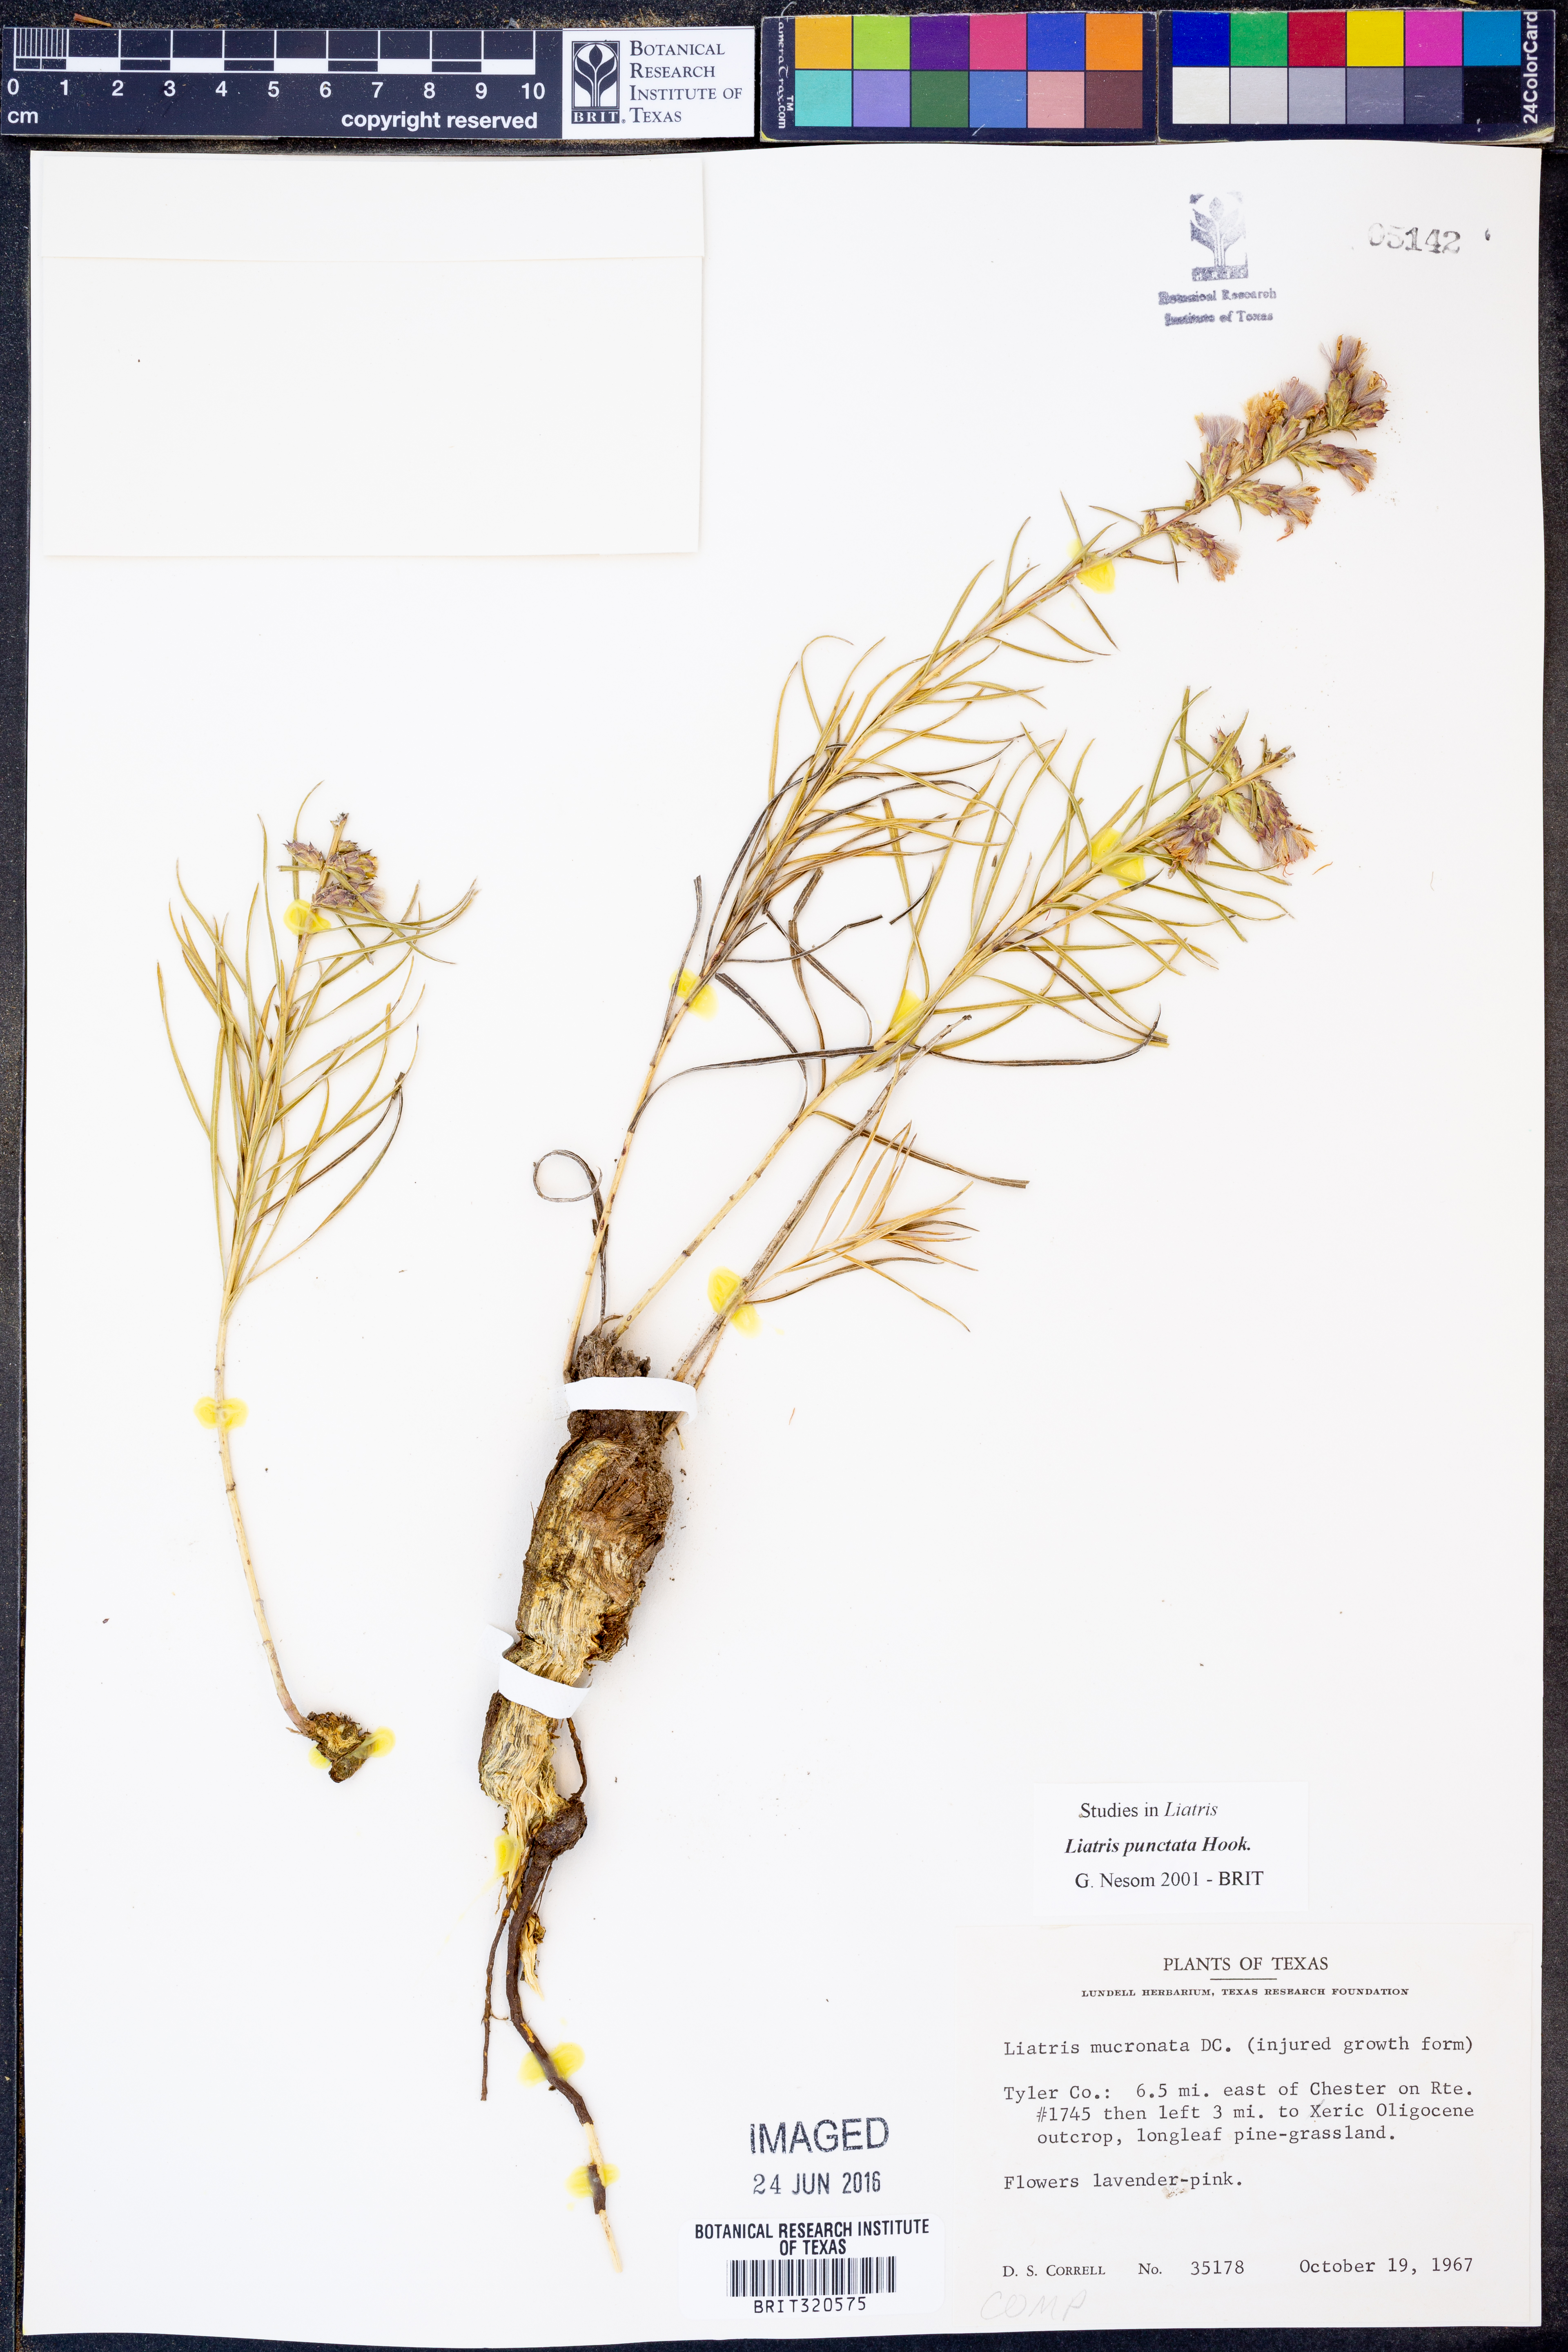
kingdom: Plantae
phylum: Tracheophyta
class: Magnoliopsida
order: Asterales
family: Asteraceae
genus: Liatris
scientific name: Liatris punctata
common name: Dotted gayfeather
